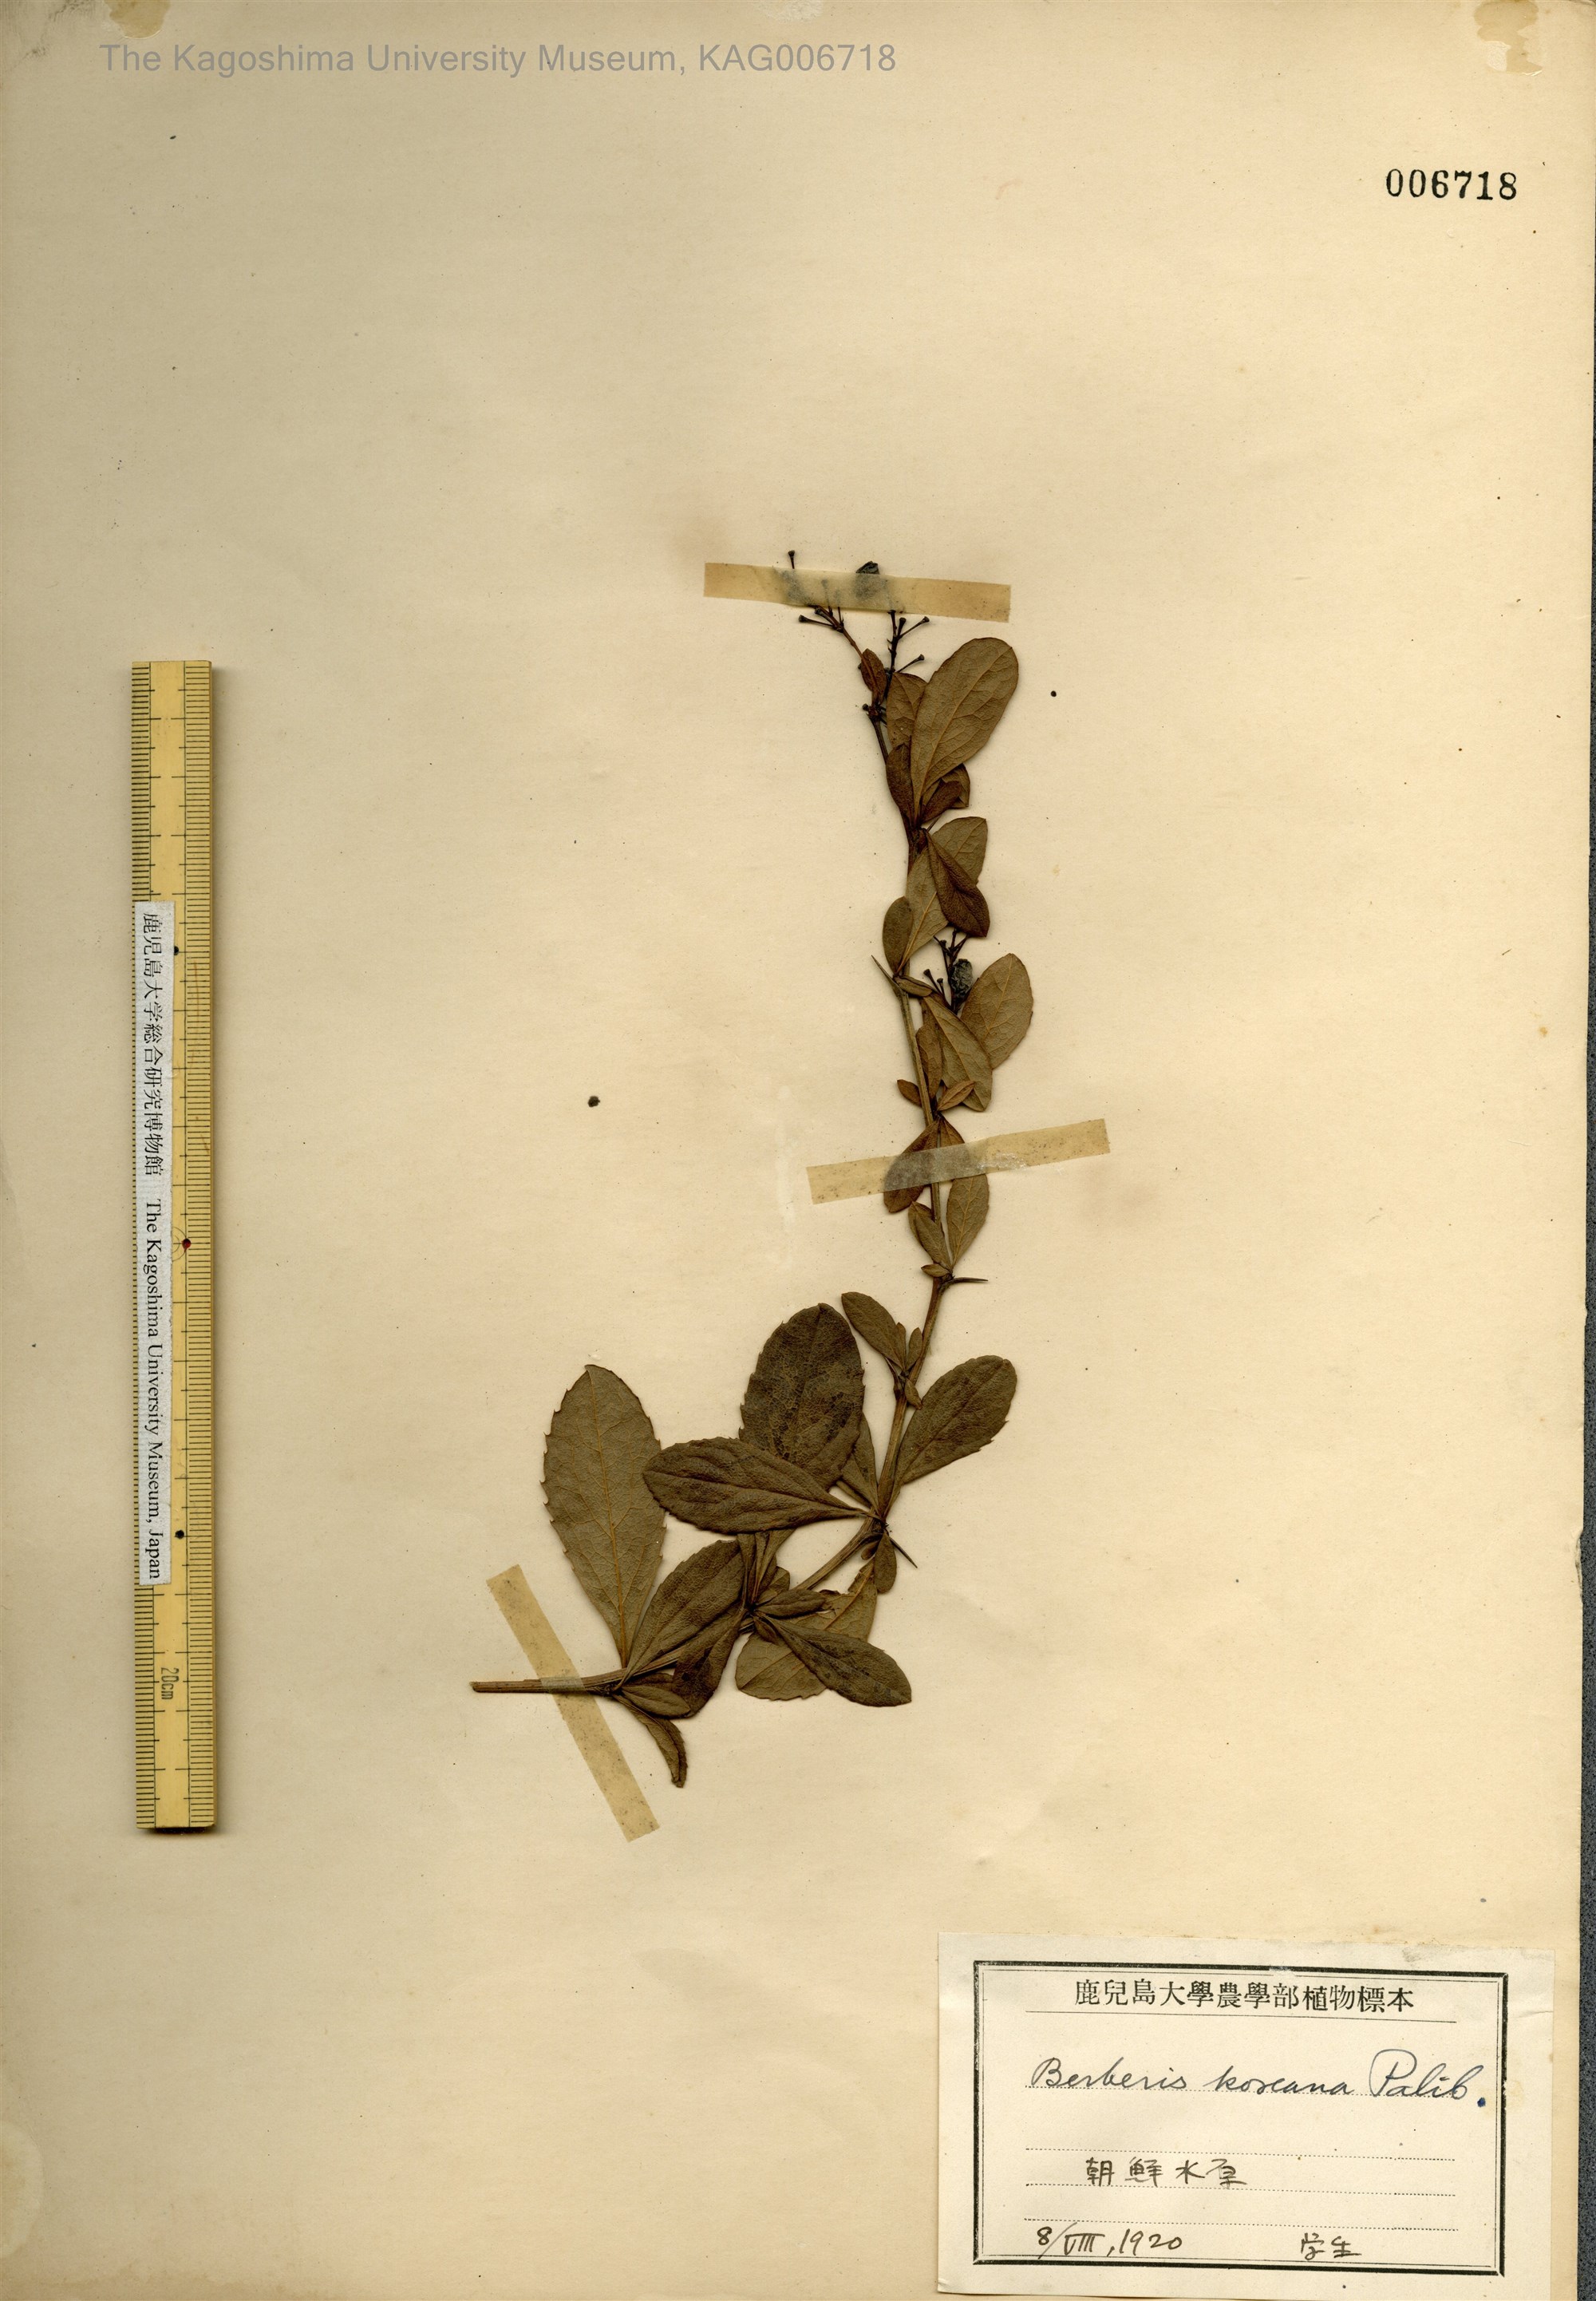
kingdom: Plantae
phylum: Tracheophyta
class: Magnoliopsida
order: Ranunculales
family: Berberidaceae
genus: Berberis
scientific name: Berberis koreana
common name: Barberry
